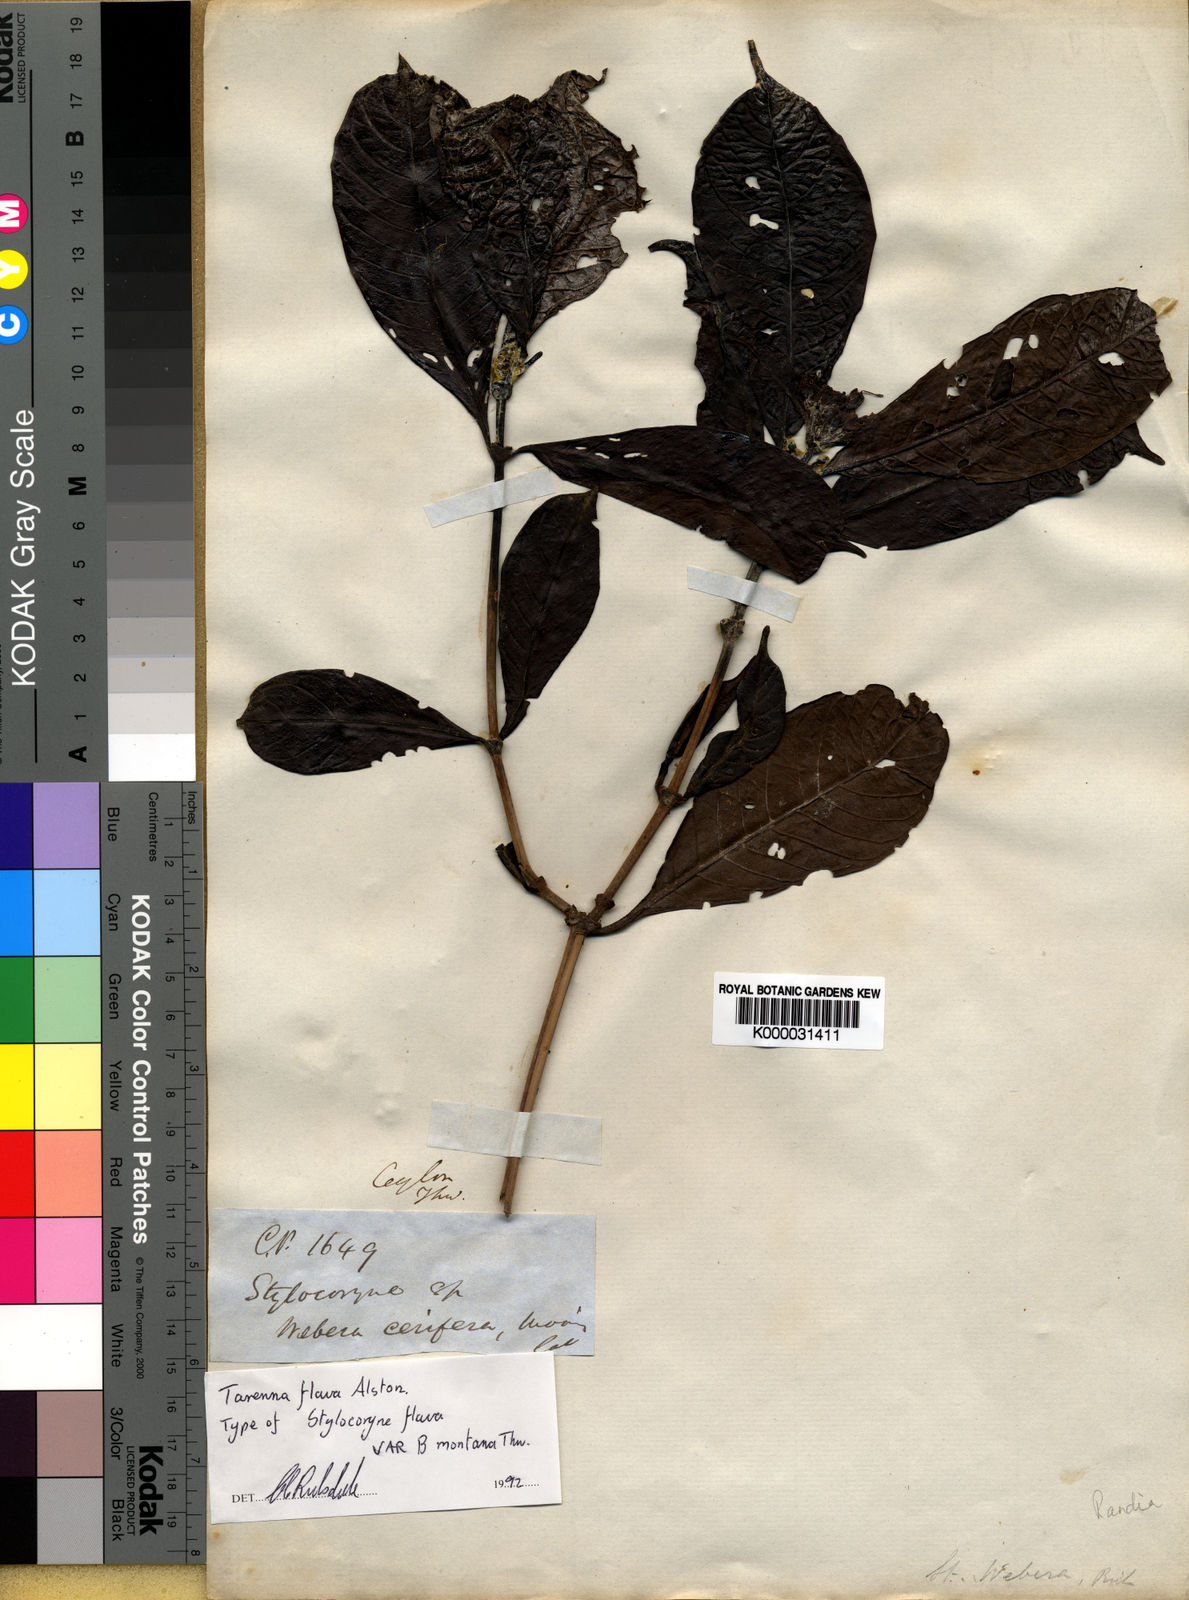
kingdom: Plantae
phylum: Tracheophyta
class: Magnoliopsida
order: Gentianales
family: Rubiaceae
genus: Tarenna
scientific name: Tarenna flava
